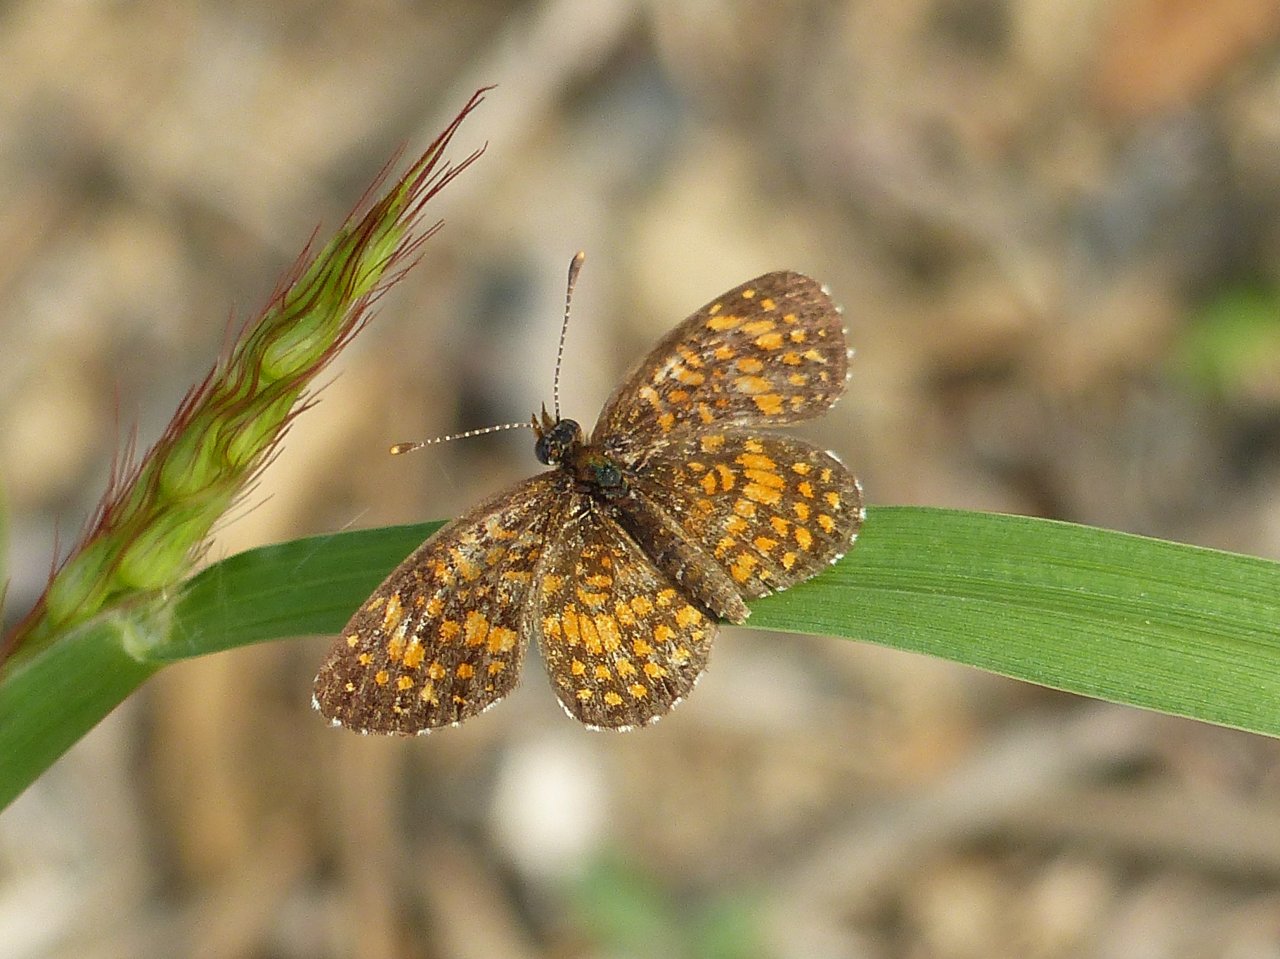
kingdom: Animalia
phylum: Arthropoda
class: Insecta
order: Lepidoptera
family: Nymphalidae
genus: Texola
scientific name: Texola elada
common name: Elada Checkerspot
